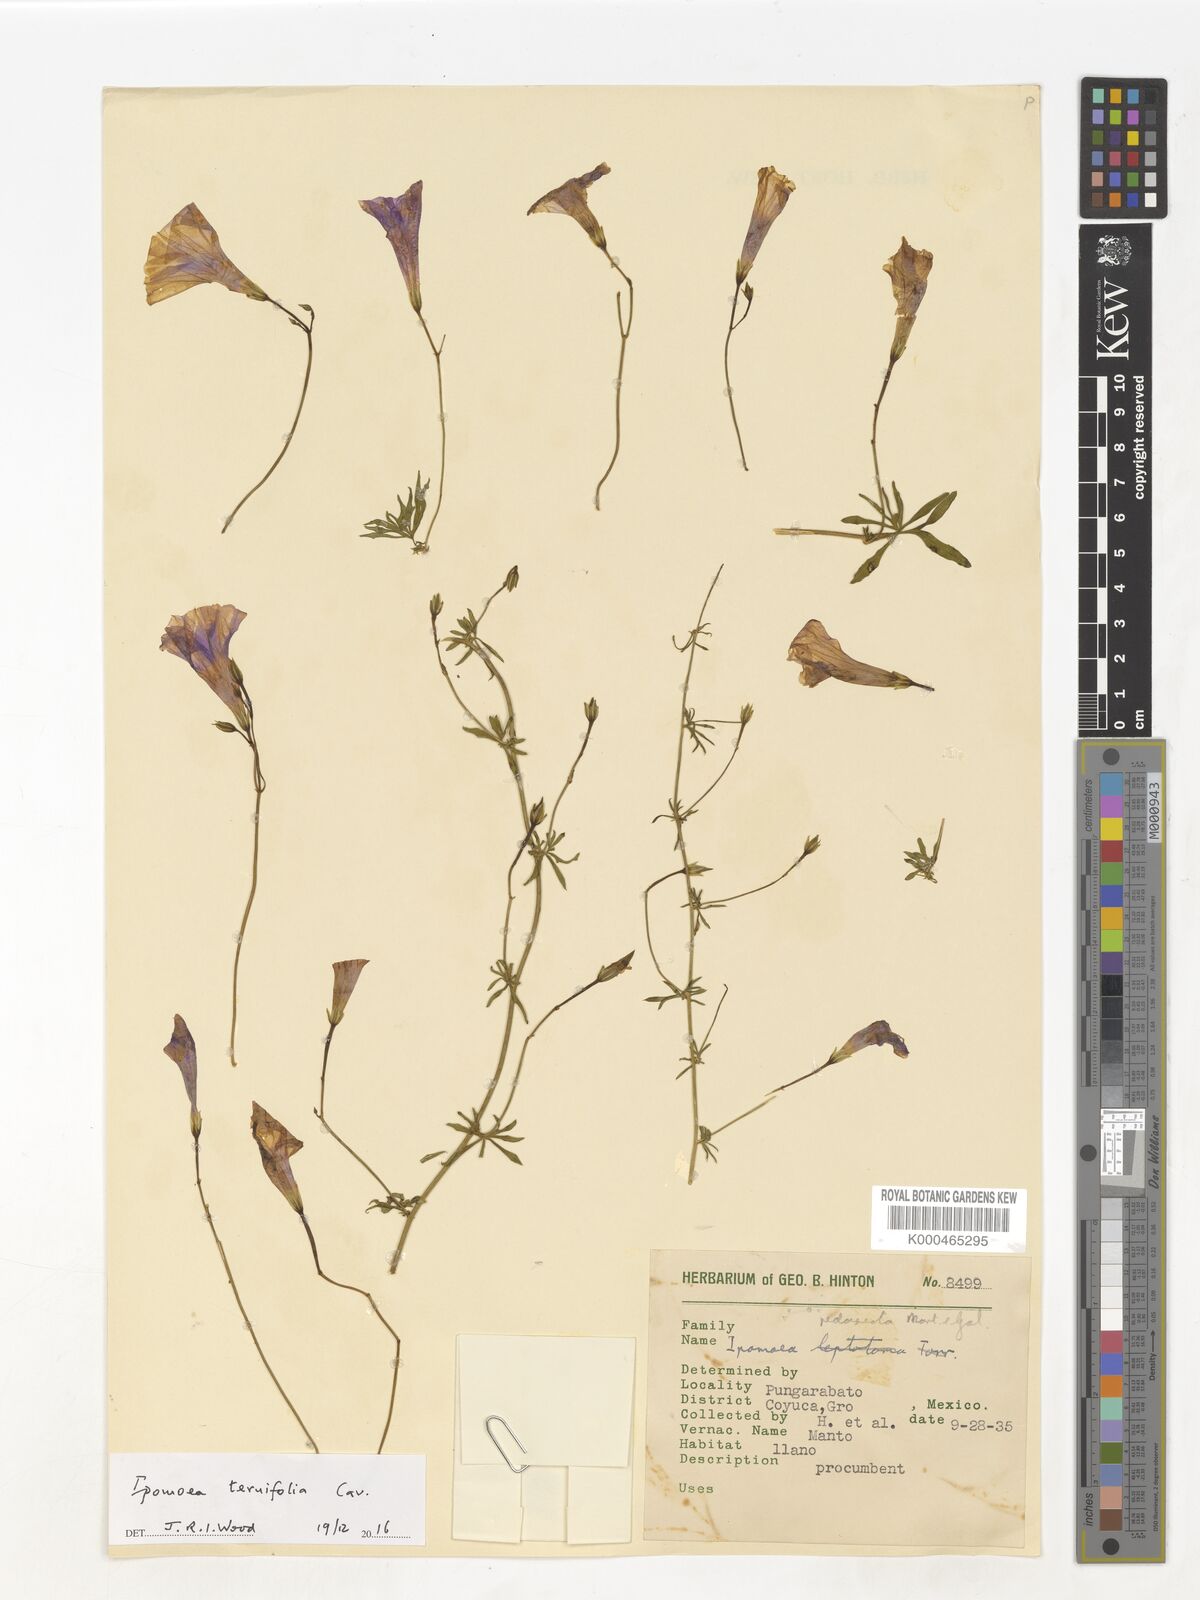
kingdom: Plantae
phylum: Tracheophyta
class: Magnoliopsida
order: Solanales
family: Convolvulaceae
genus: Ipomoea
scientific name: Ipomoea ternifolia
